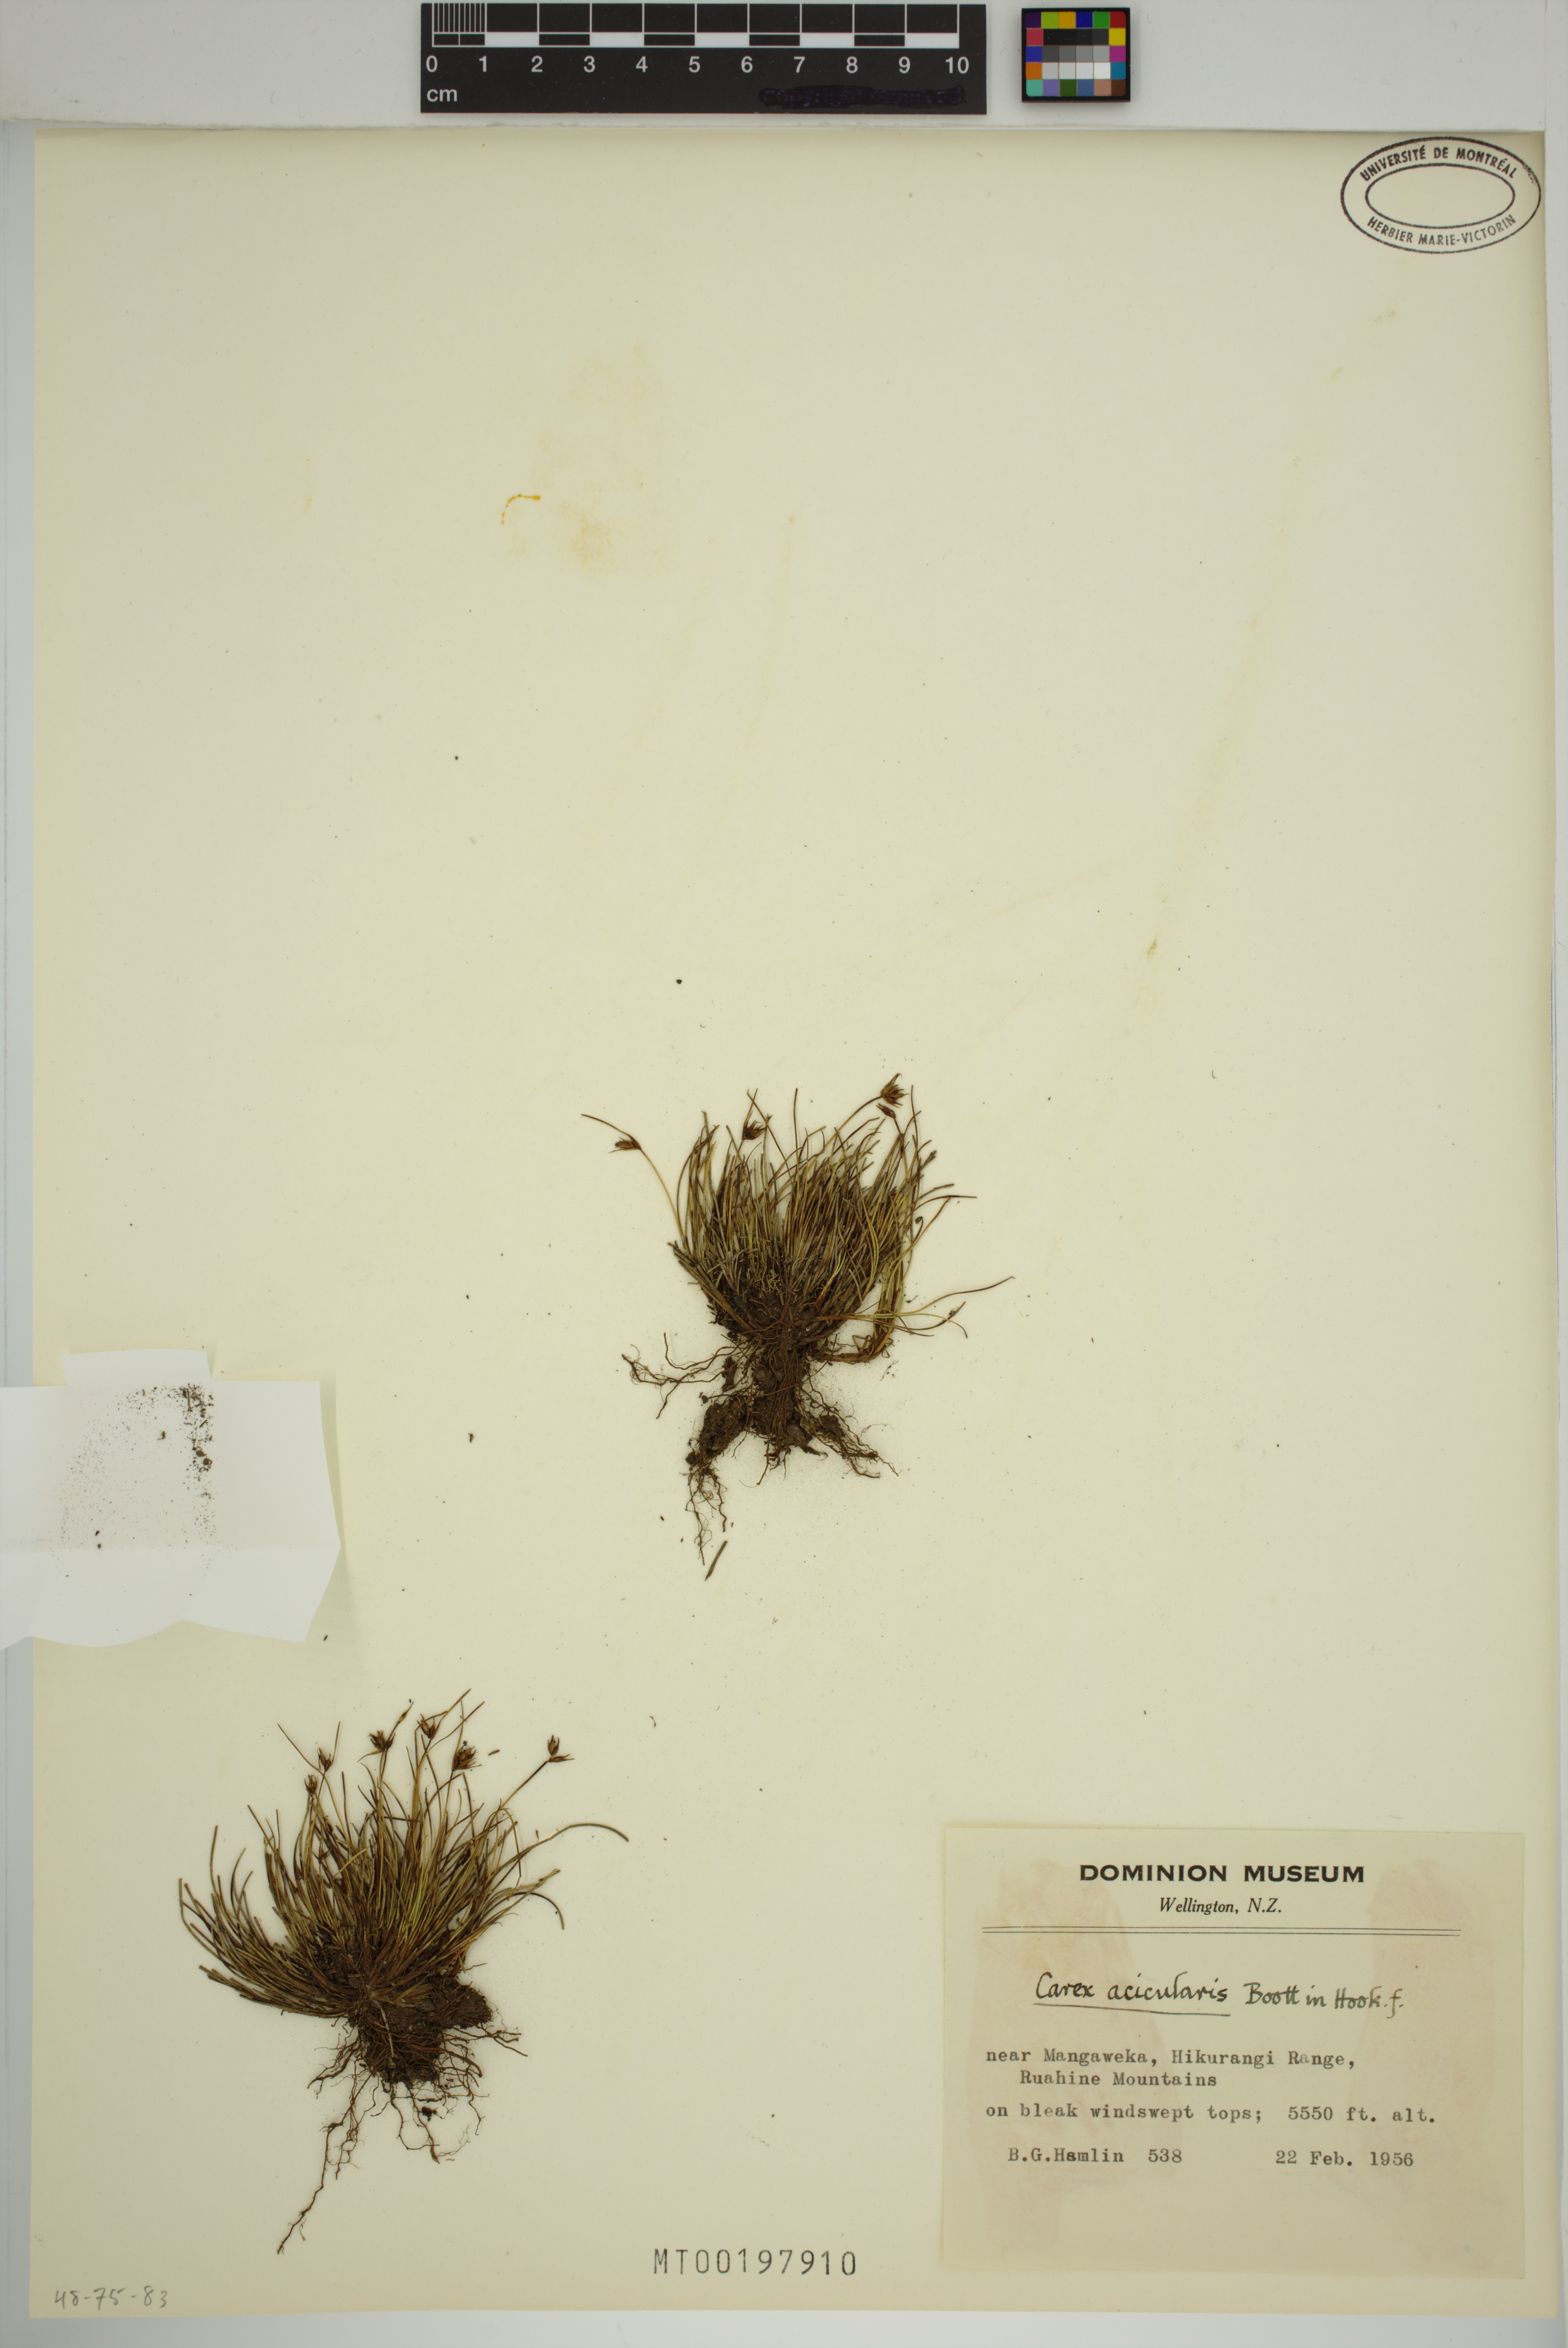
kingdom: Plantae
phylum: Tracheophyta
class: Liliopsida
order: Poales
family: Cyperaceae
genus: Carex
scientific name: Carex acicularis
